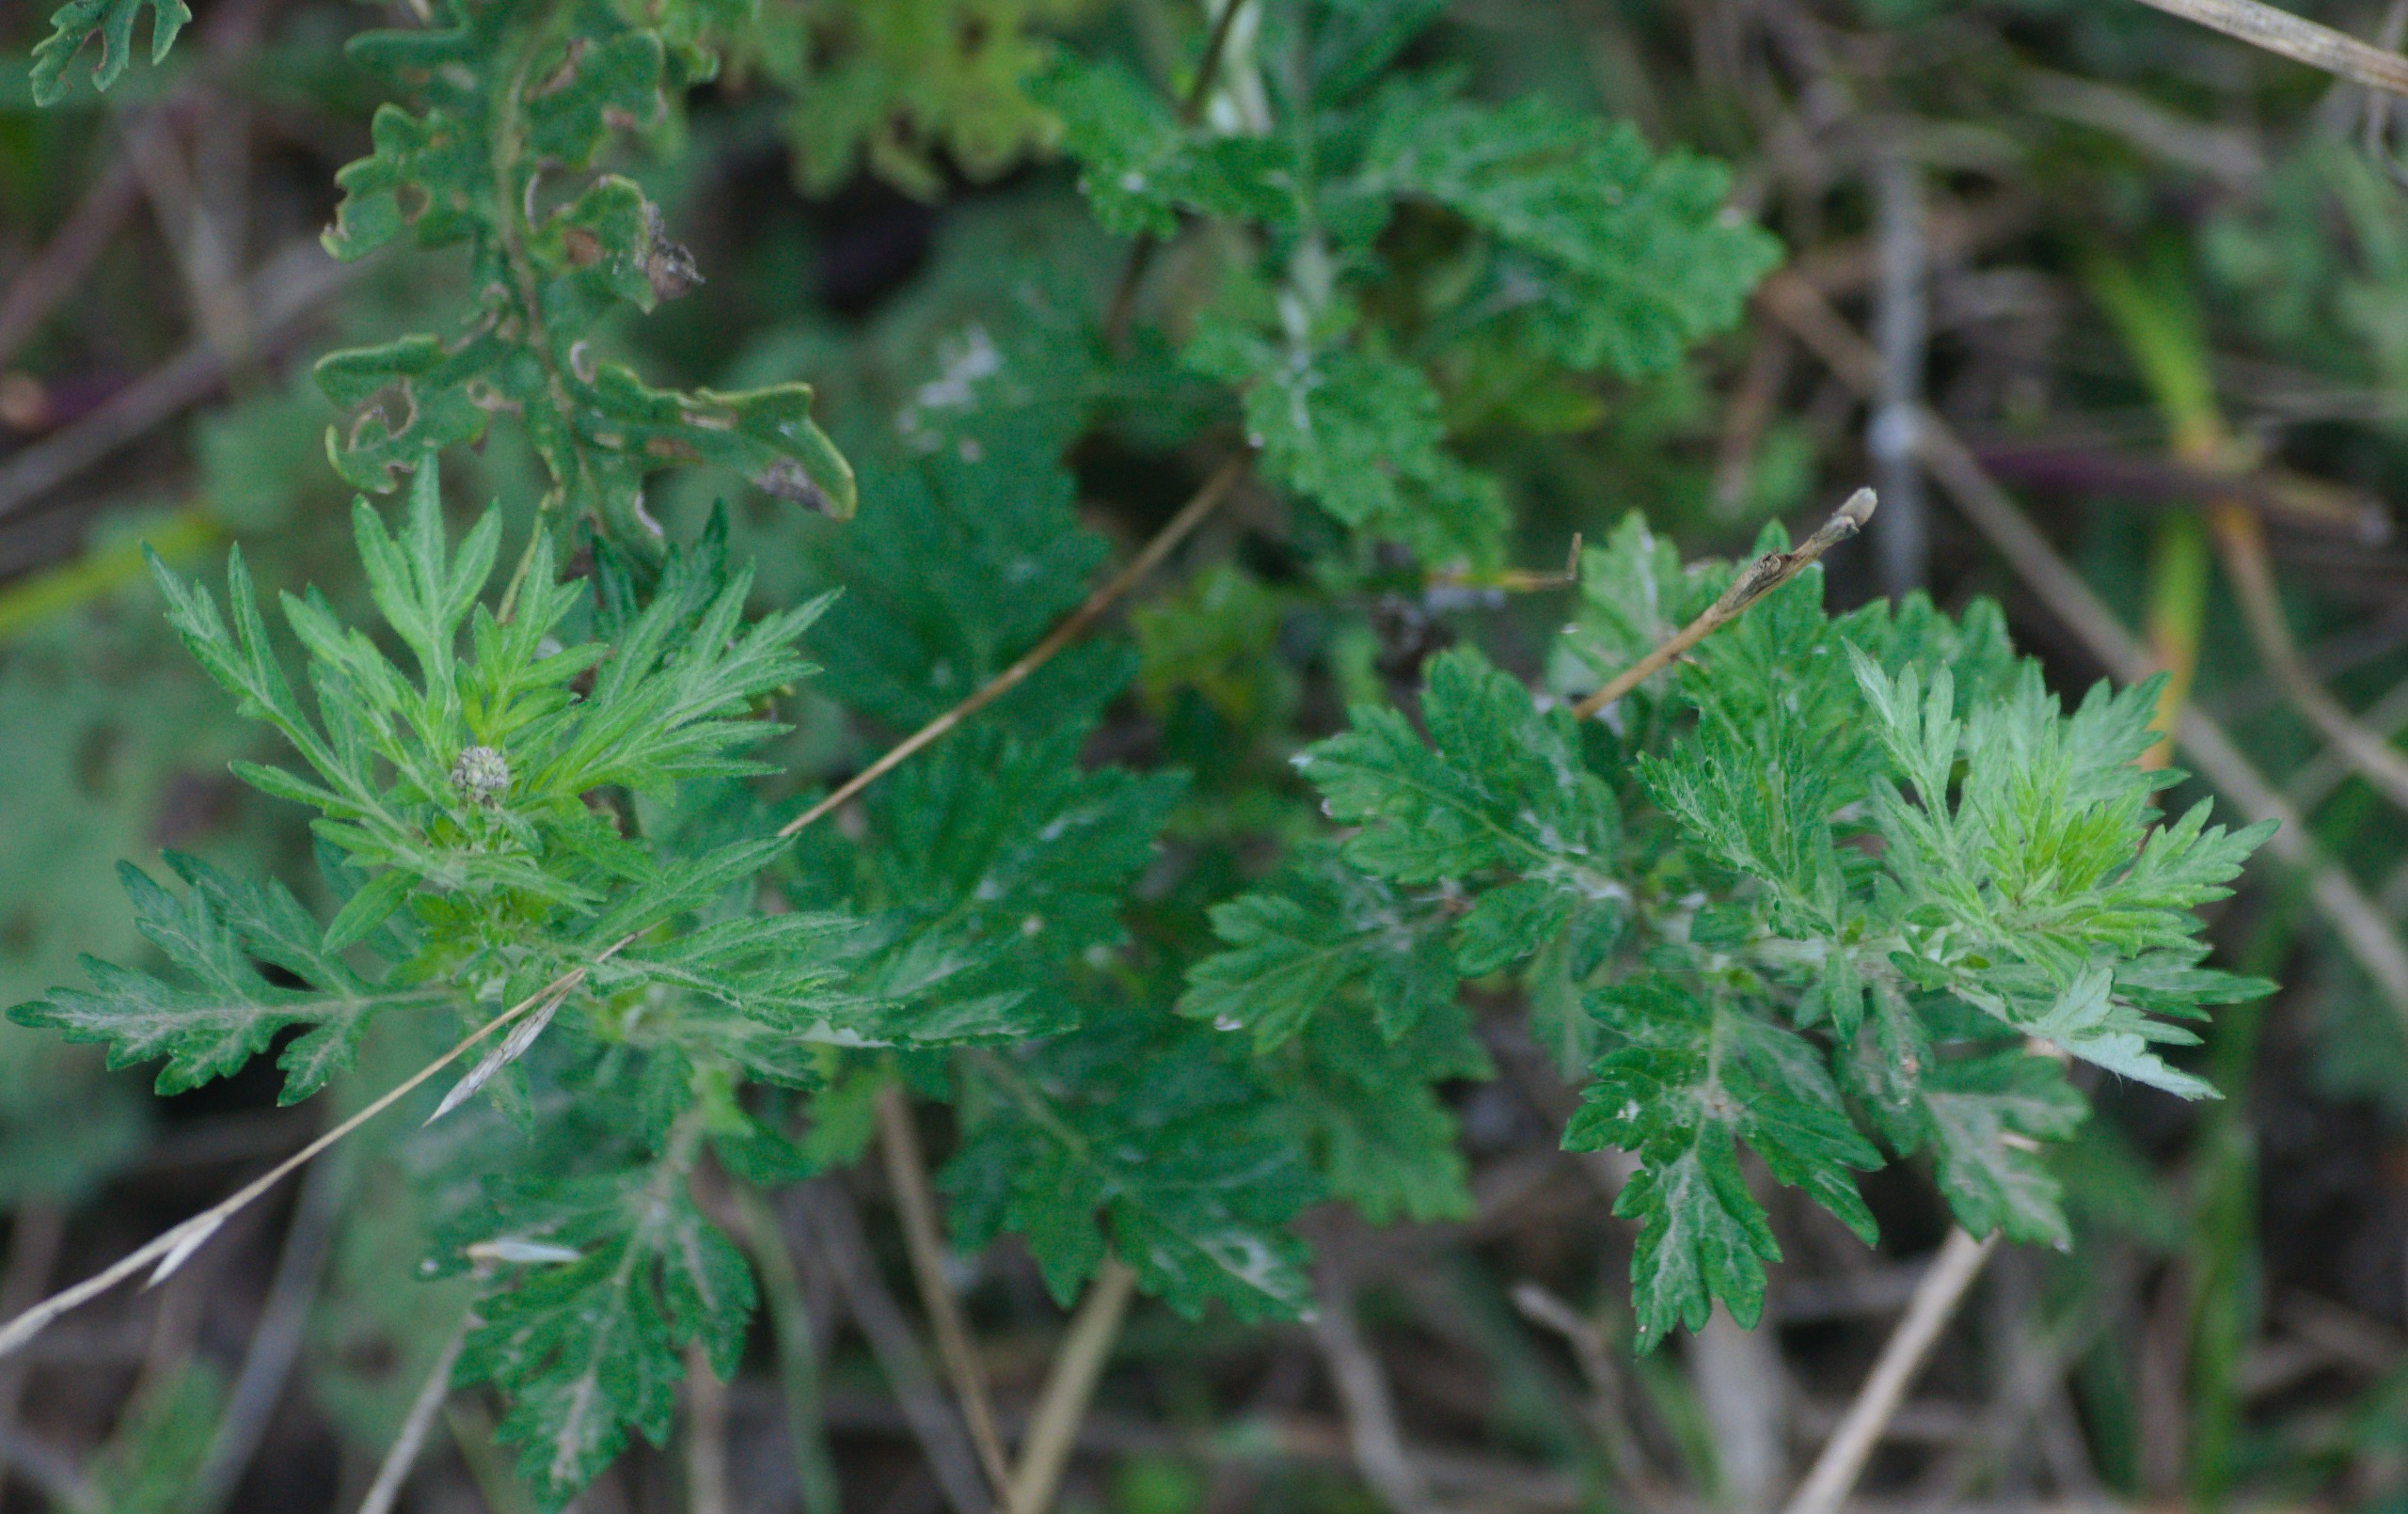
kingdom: Plantae
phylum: Tracheophyta
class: Magnoliopsida
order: Asterales
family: Asteraceae
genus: Artemisia
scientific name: Artemisia vulgaris
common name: Grå-bynke
